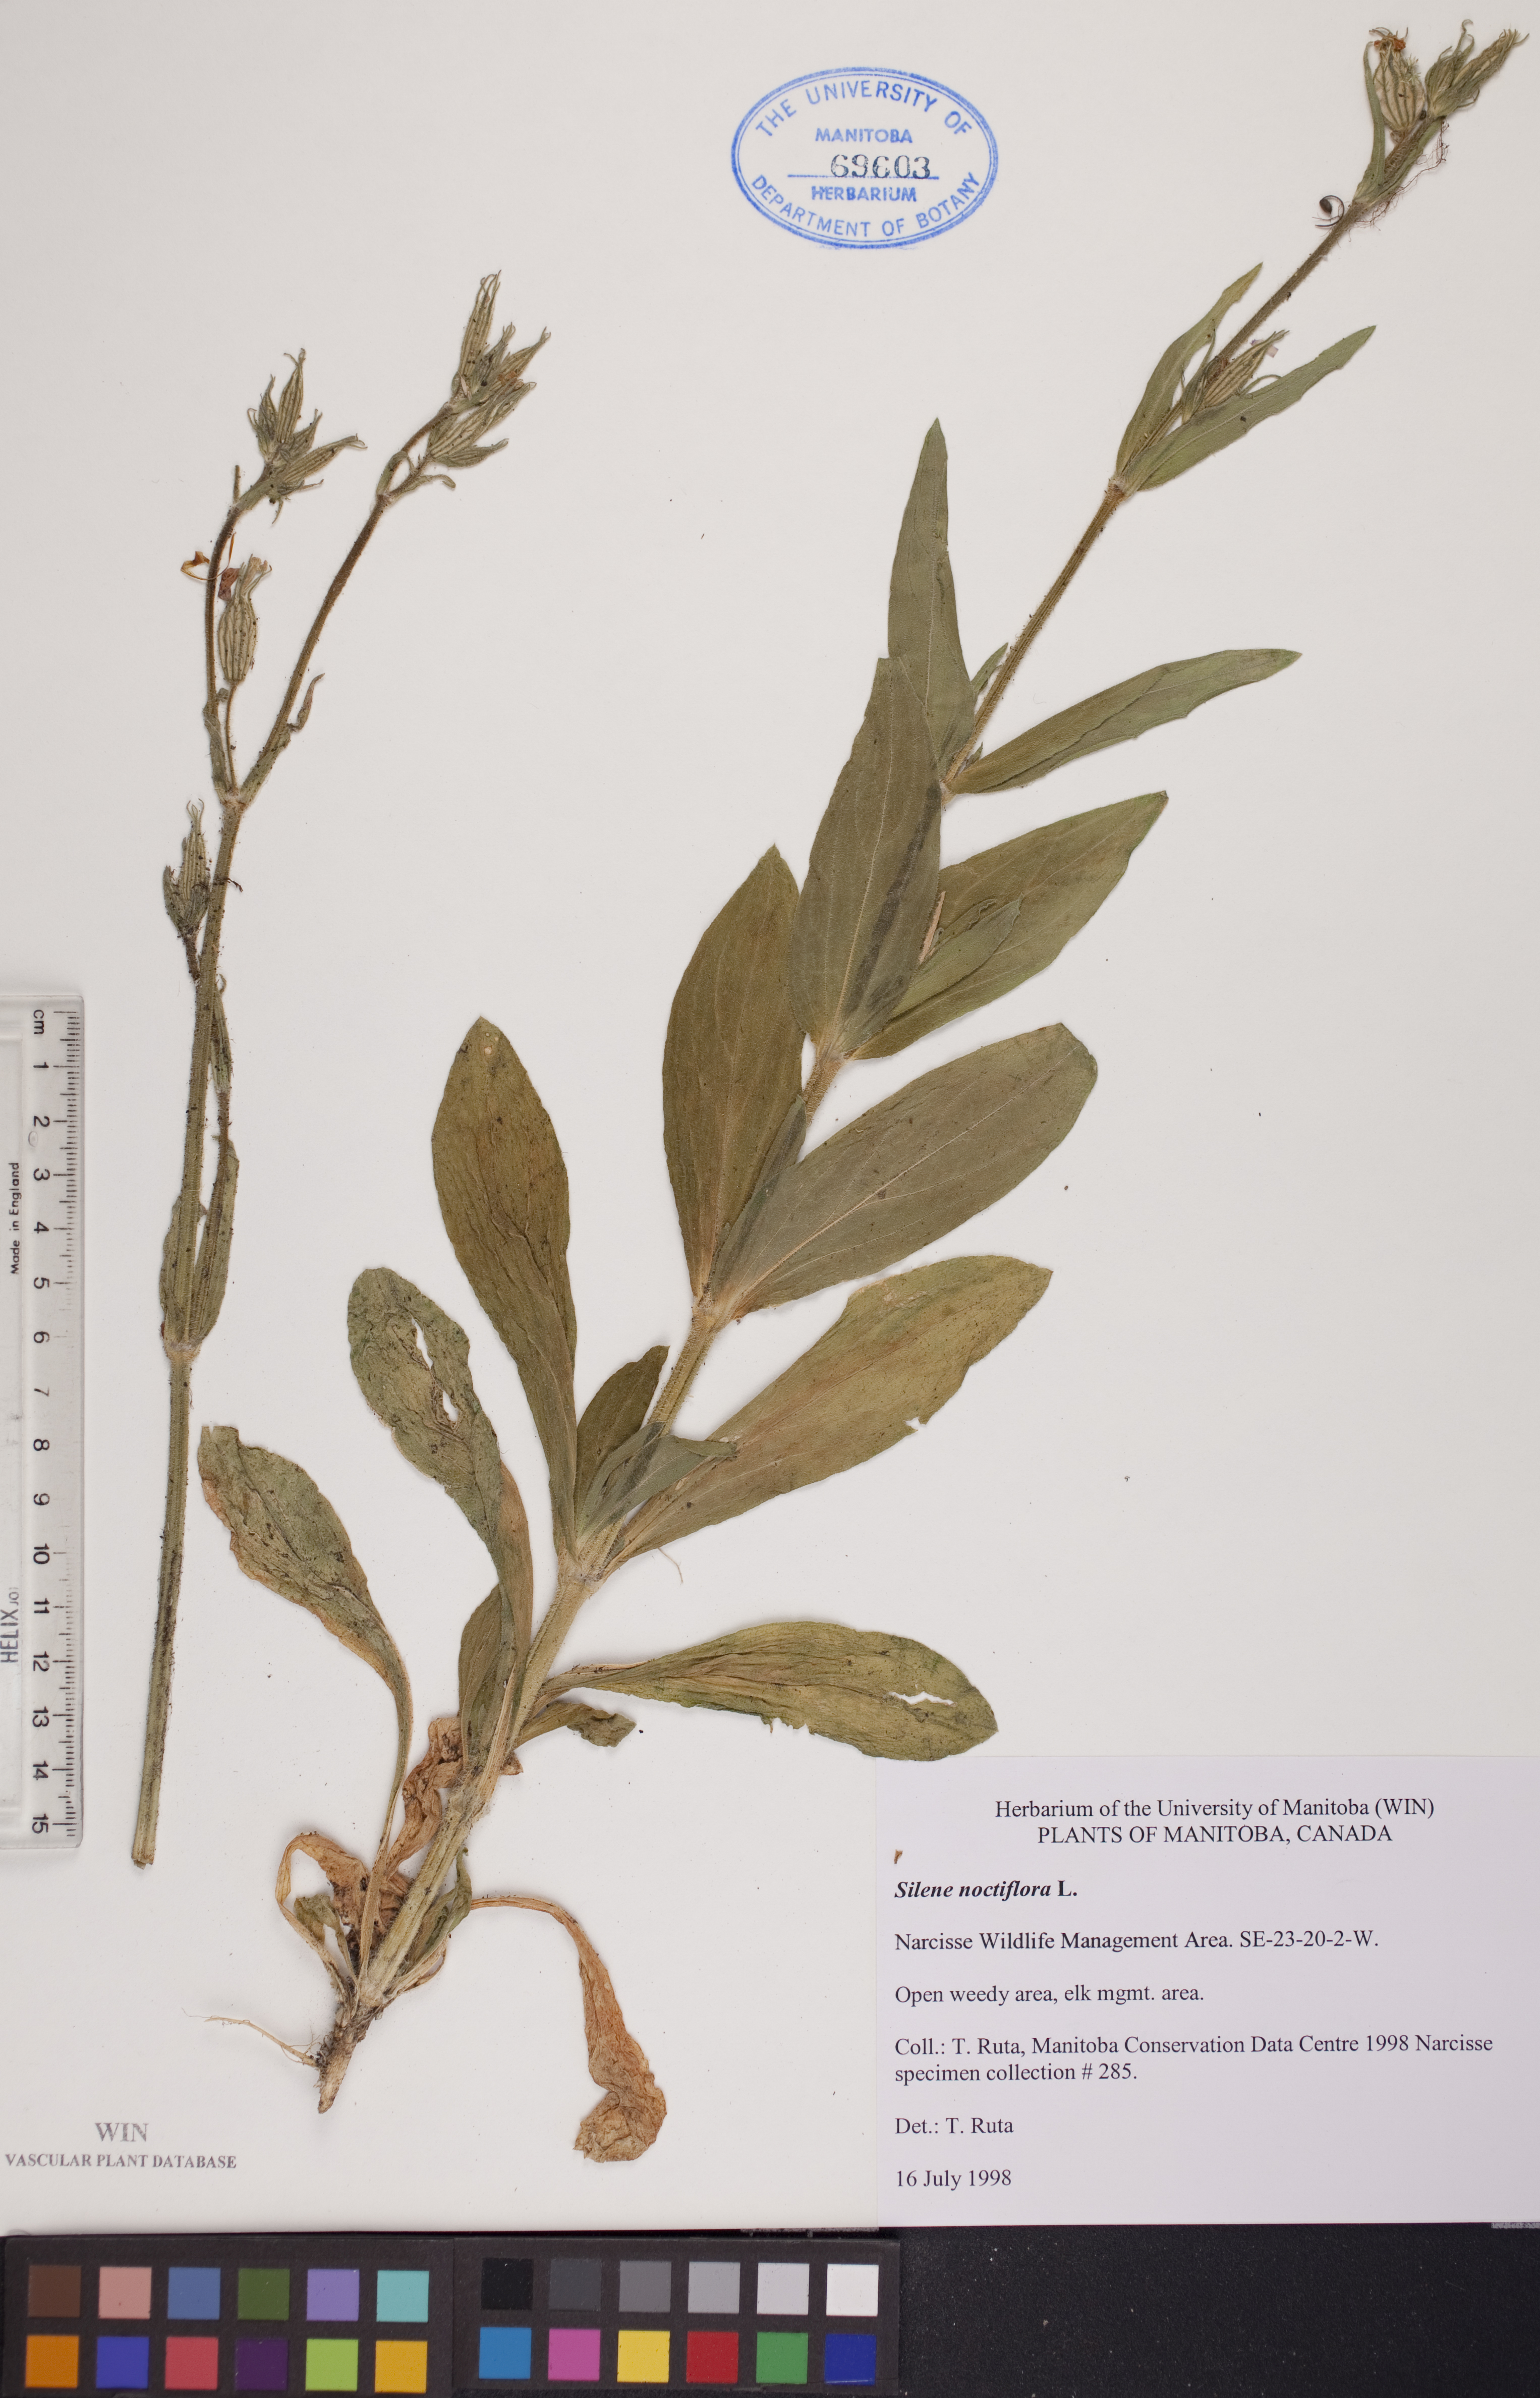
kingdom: Plantae
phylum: Tracheophyta
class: Magnoliopsida
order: Caryophyllales
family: Caryophyllaceae
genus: Silene
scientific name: Silene noctiflora
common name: Night-flowering catchfly
